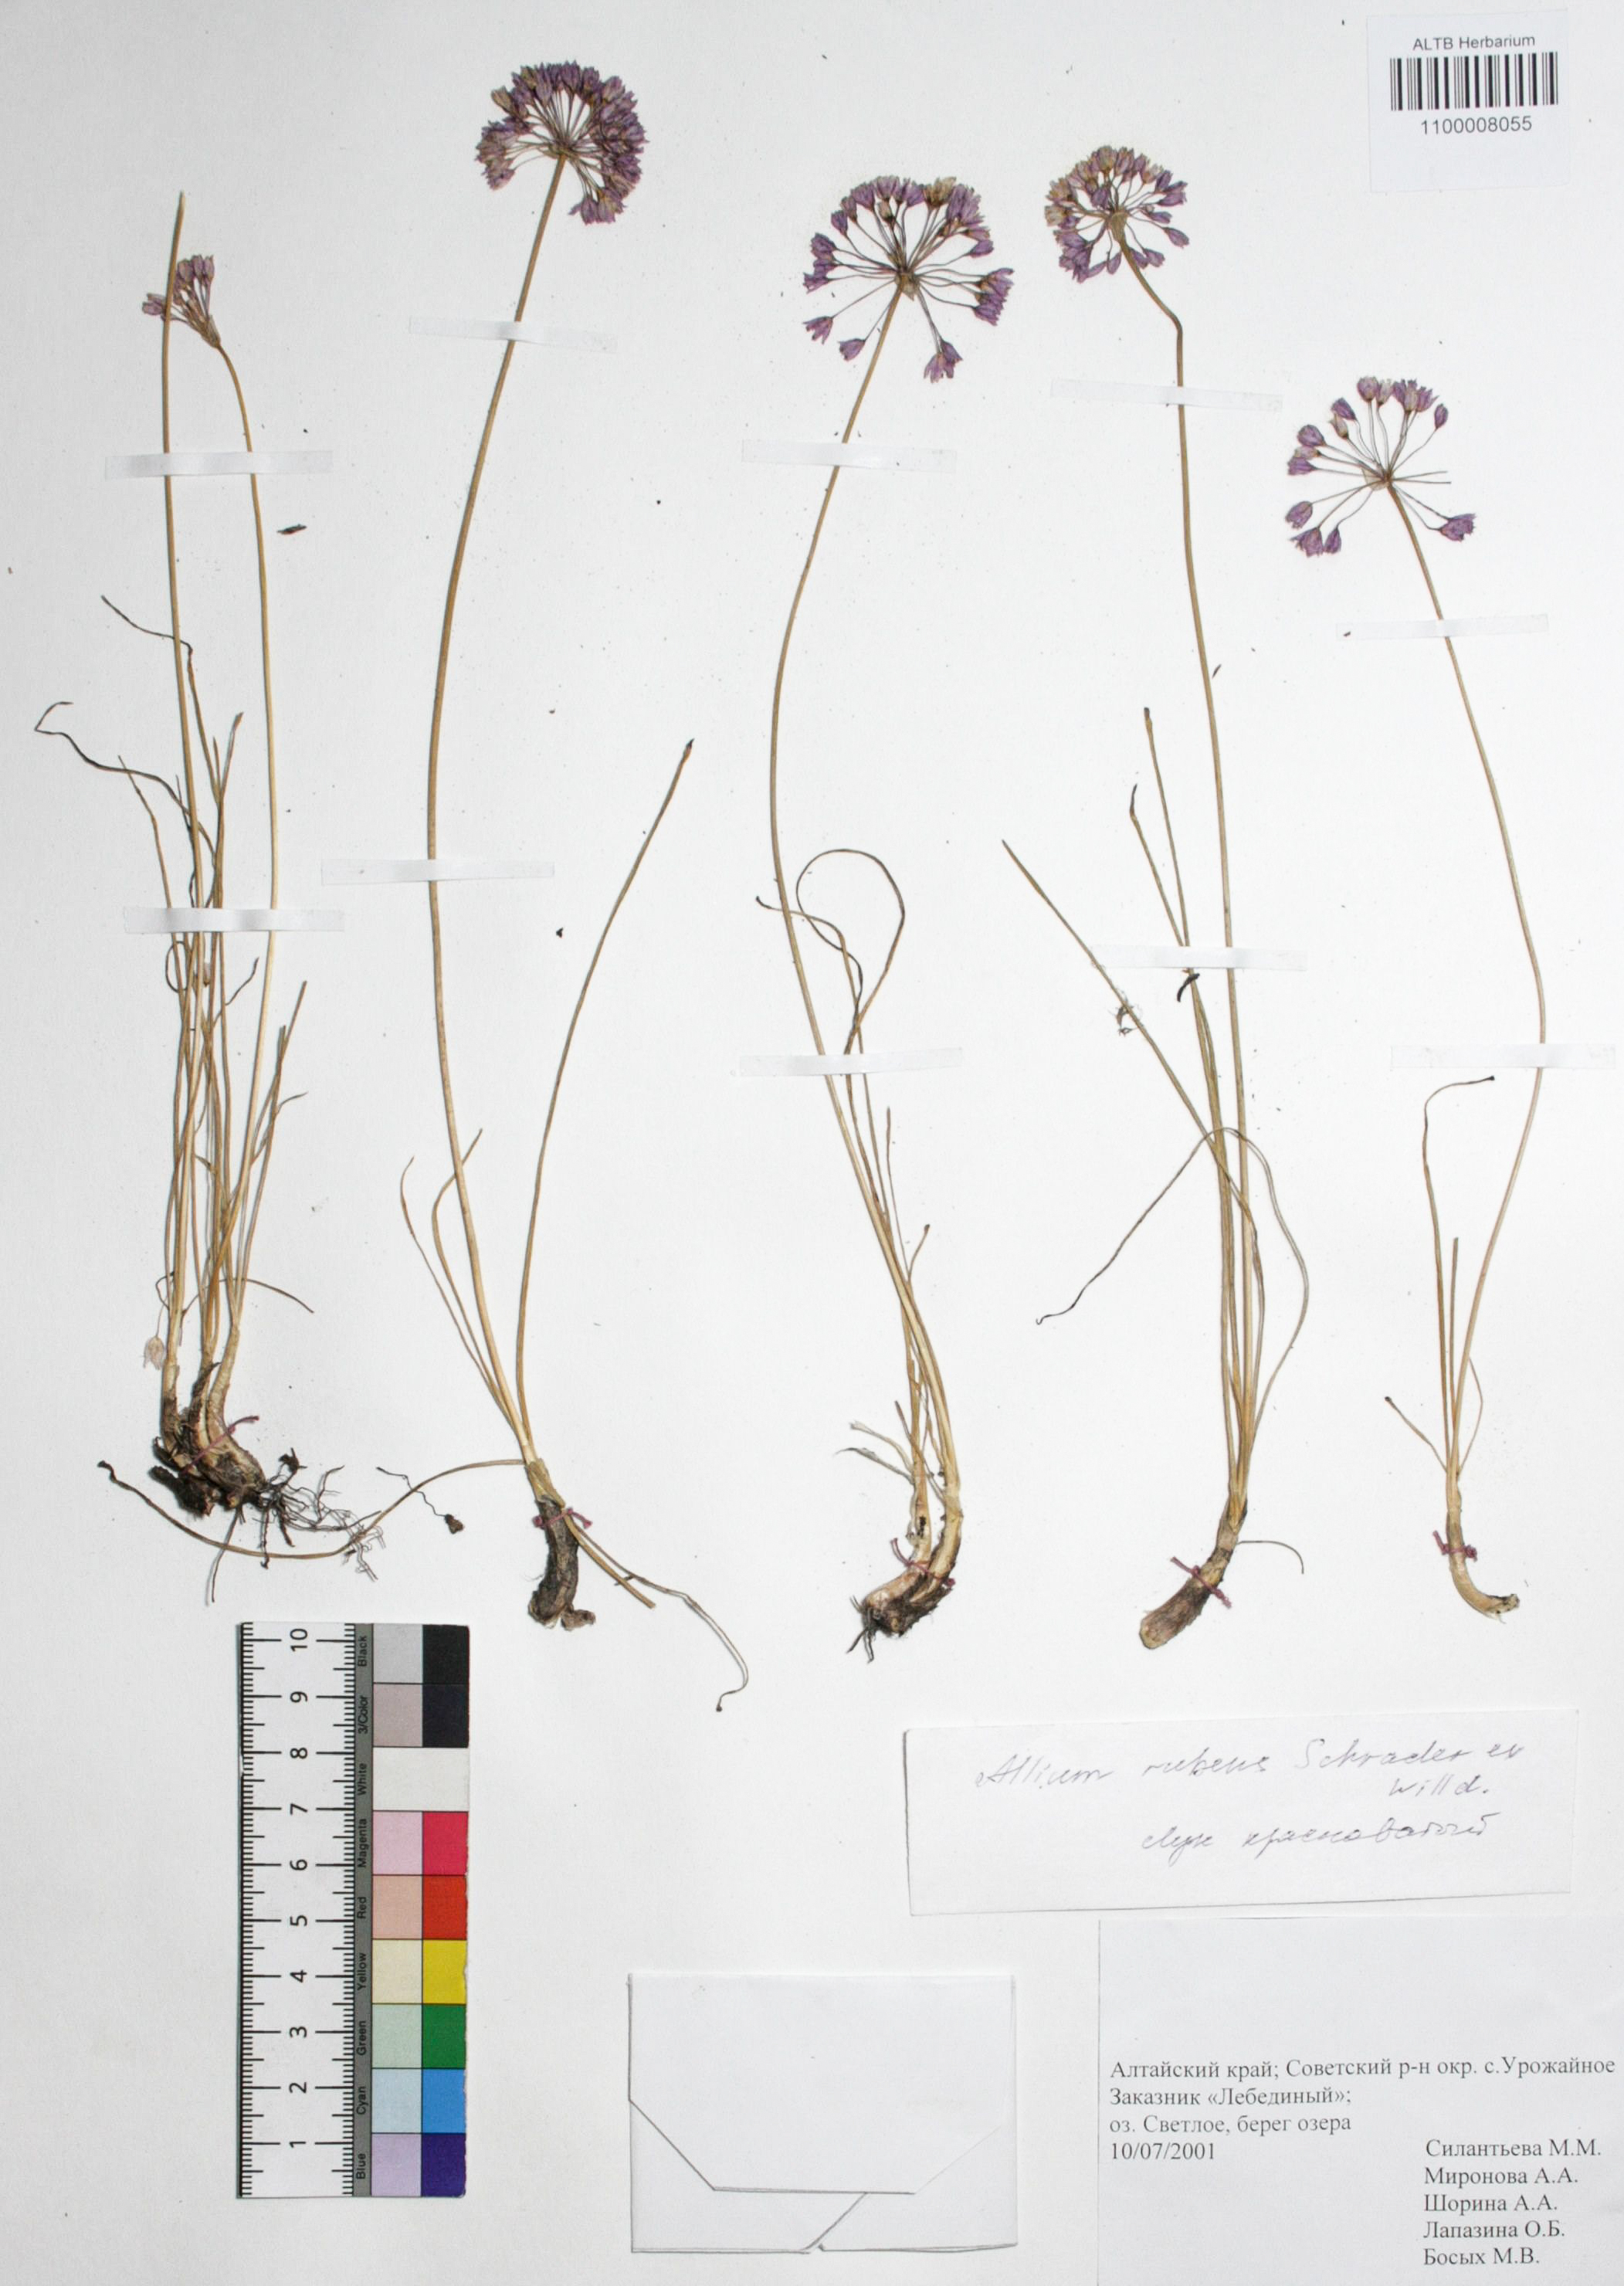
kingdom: Plantae
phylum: Tracheophyta
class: Liliopsida
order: Asparagales
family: Amaryllidaceae
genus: Allium
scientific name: Allium rubens
